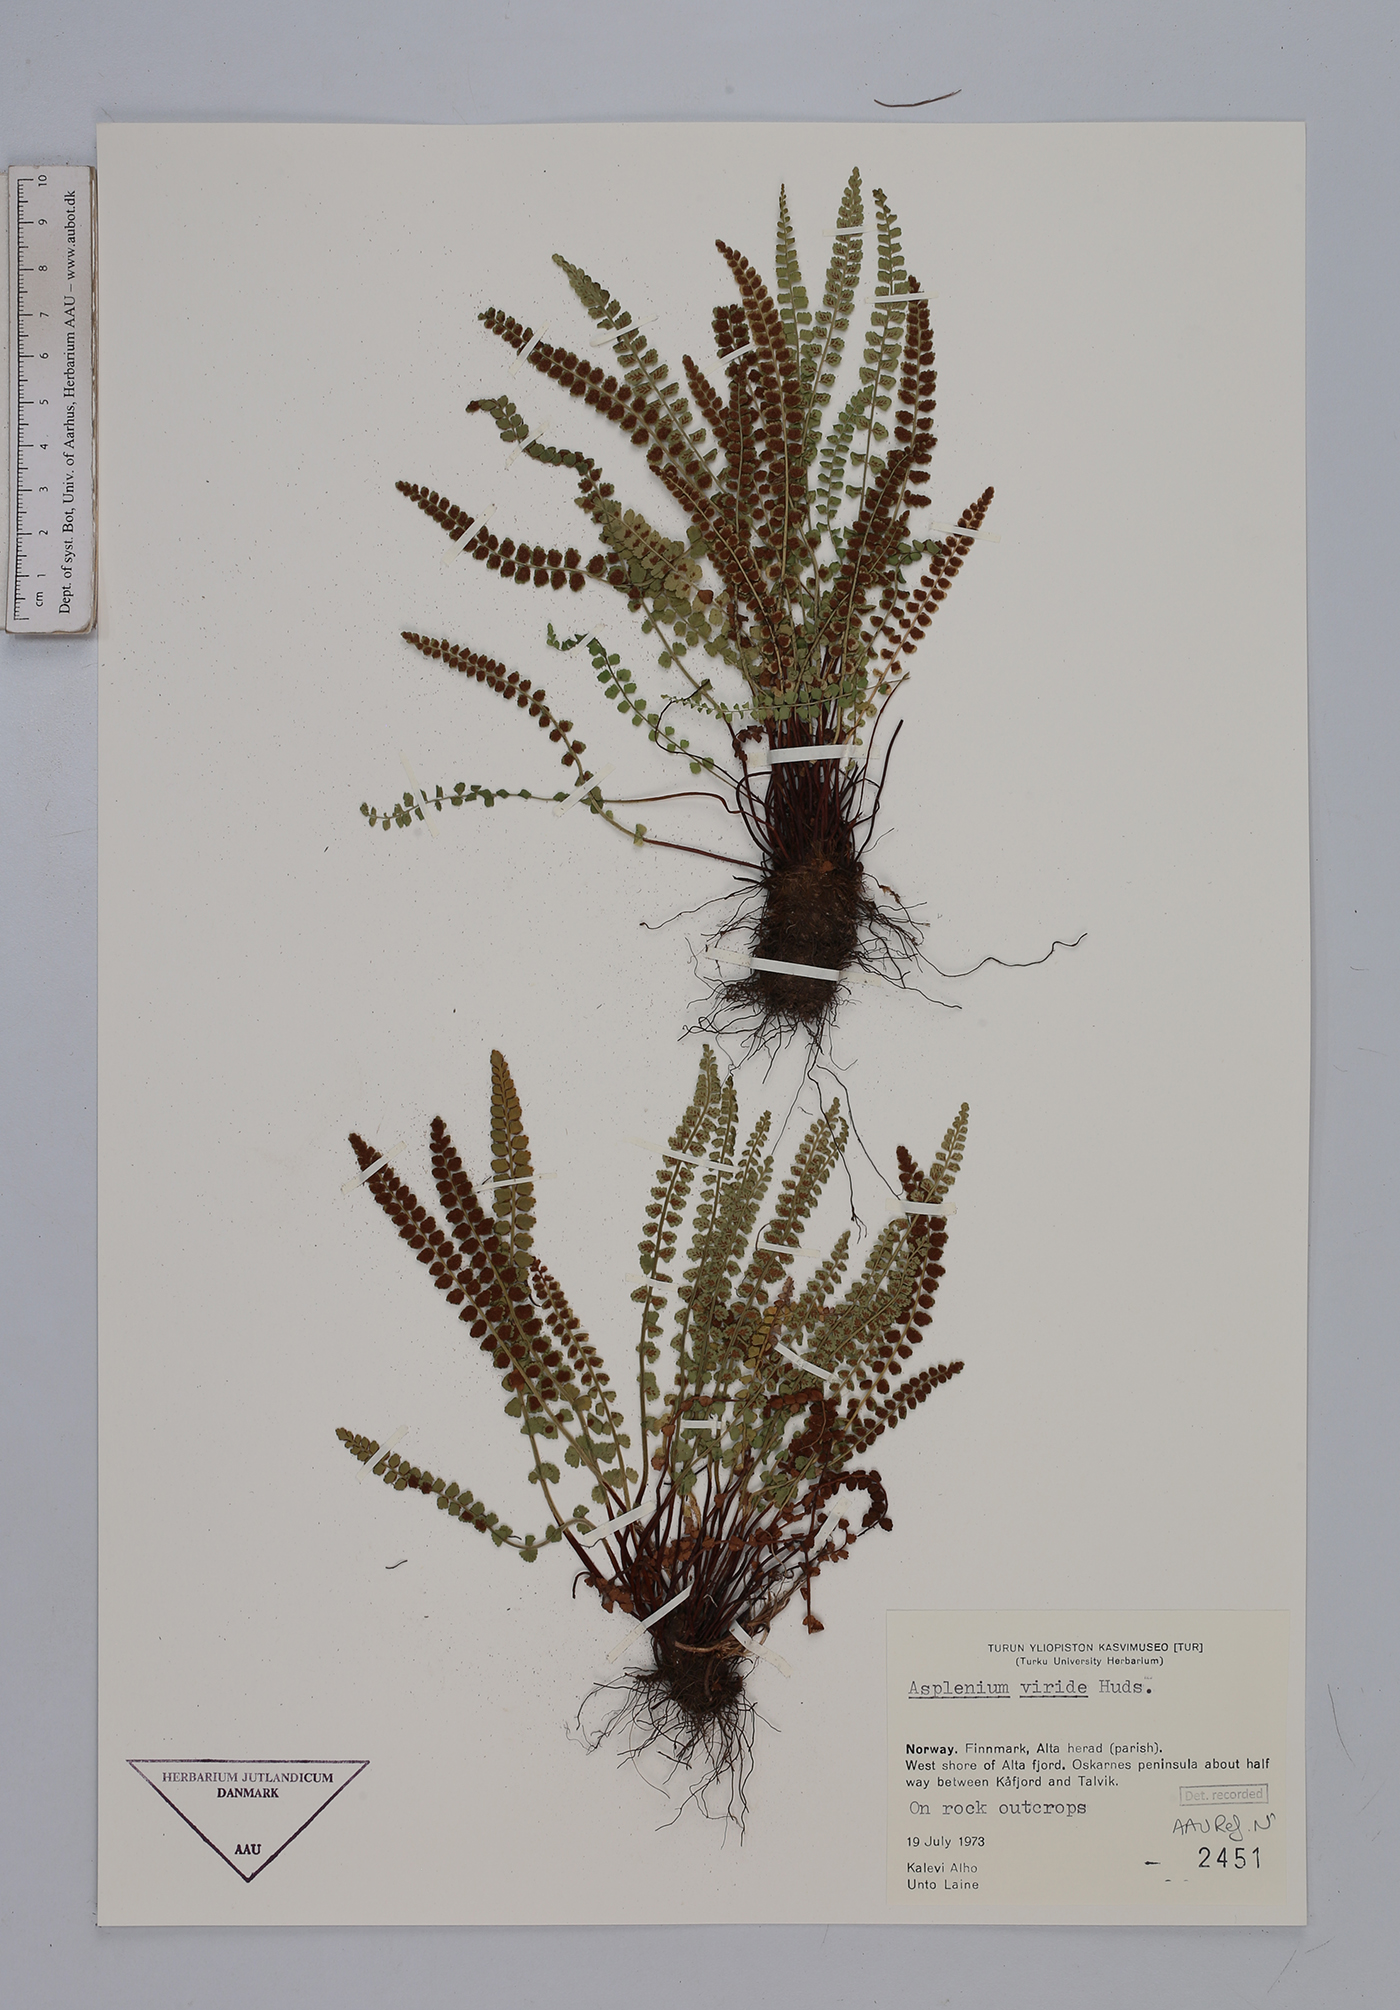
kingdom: Plantae
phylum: Tracheophyta
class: Polypodiopsida
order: Polypodiales
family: Aspleniaceae
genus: Asplenium
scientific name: Asplenium viride
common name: Green spleenwort
